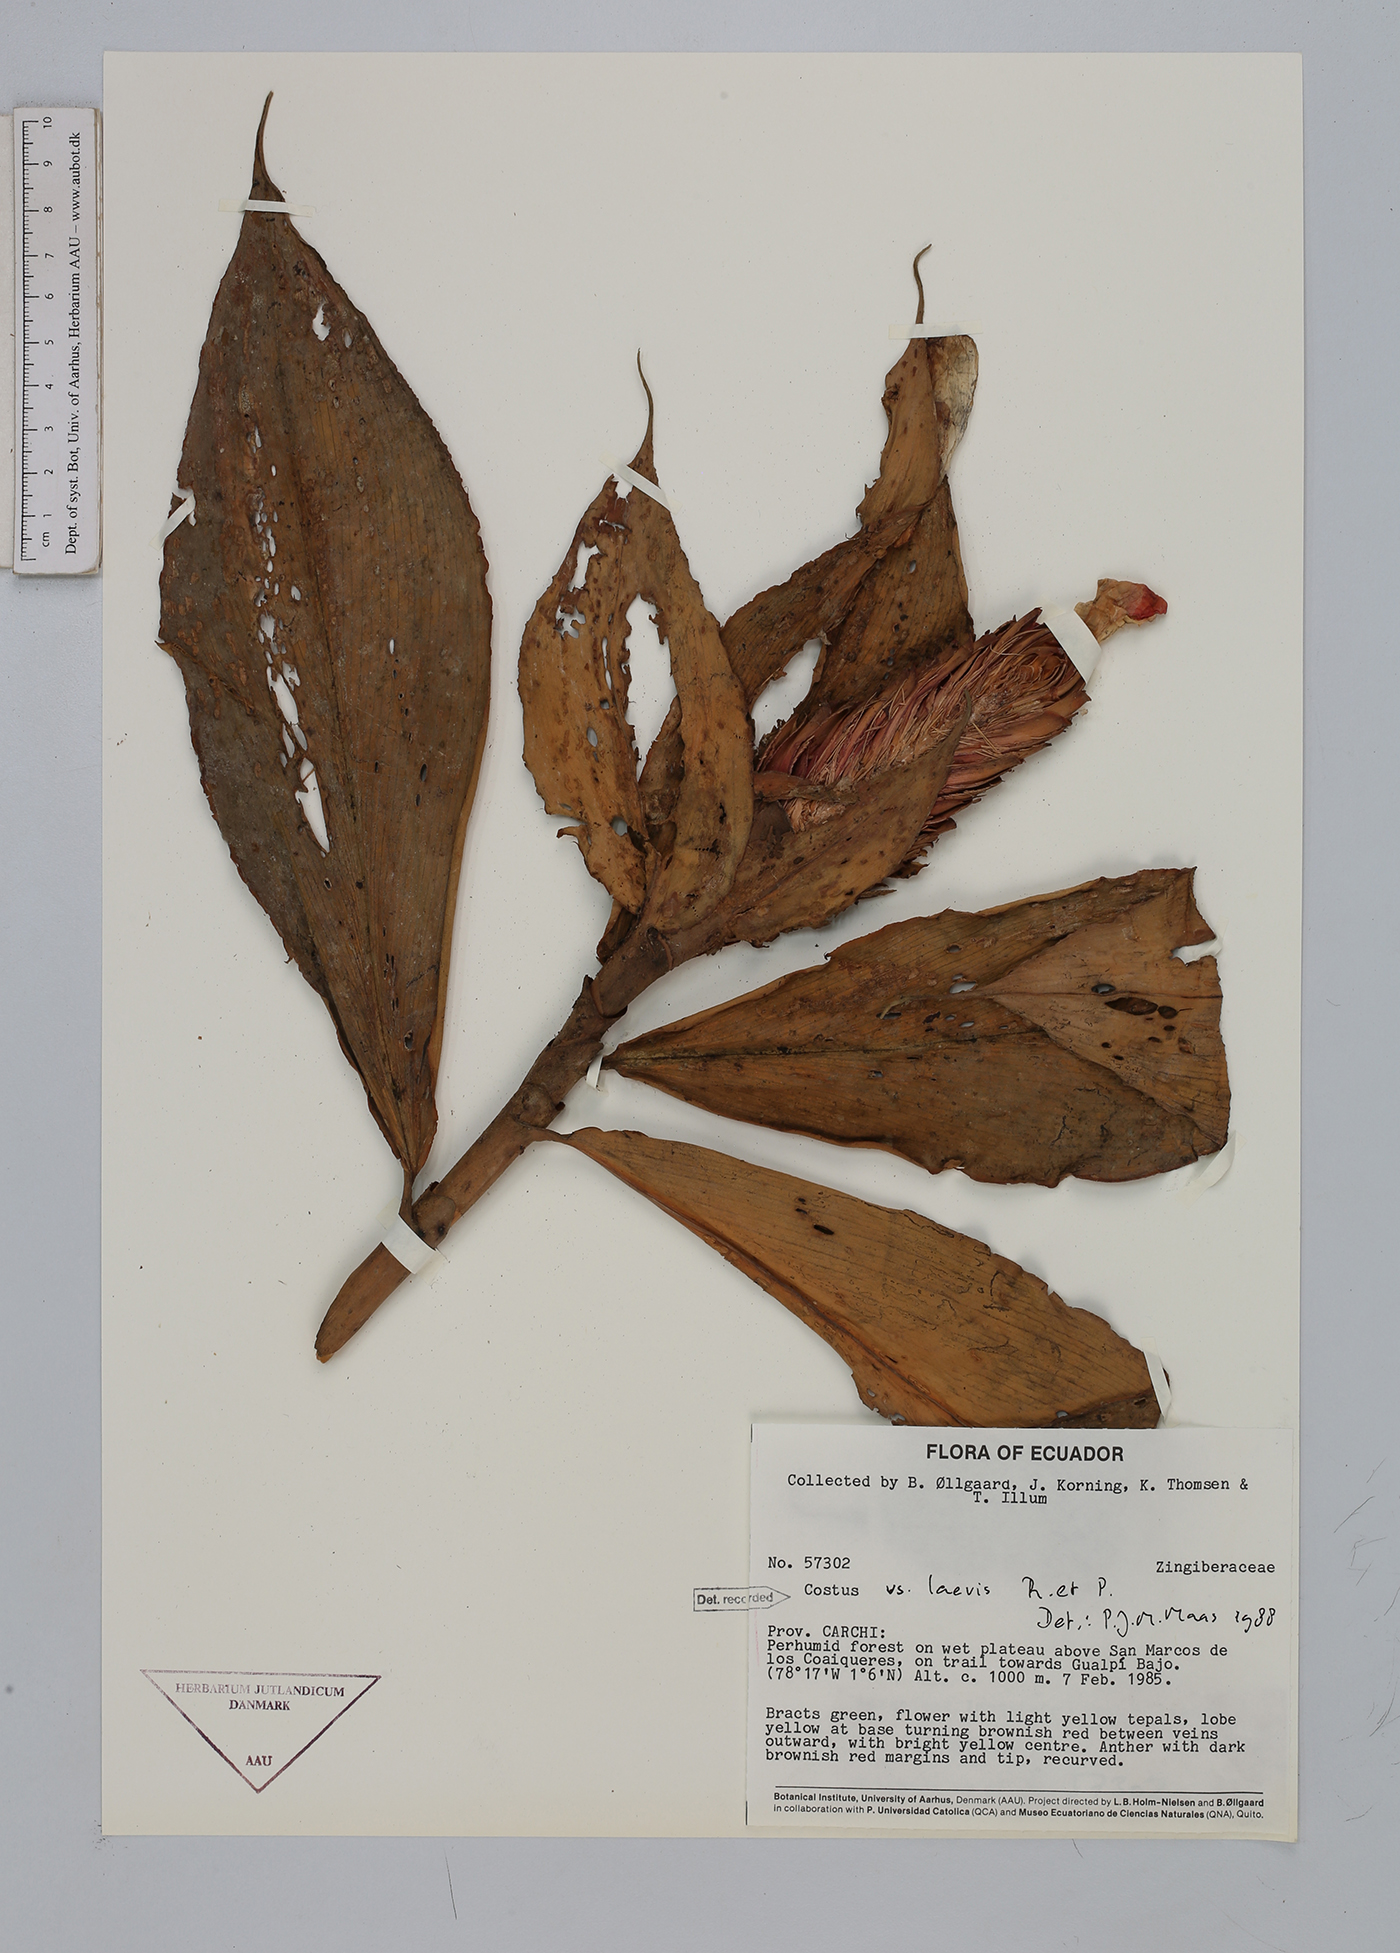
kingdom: Plantae
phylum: Tracheophyta
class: Liliopsida
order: Zingiberales
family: Costaceae
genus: Costus
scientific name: Costus laevis
